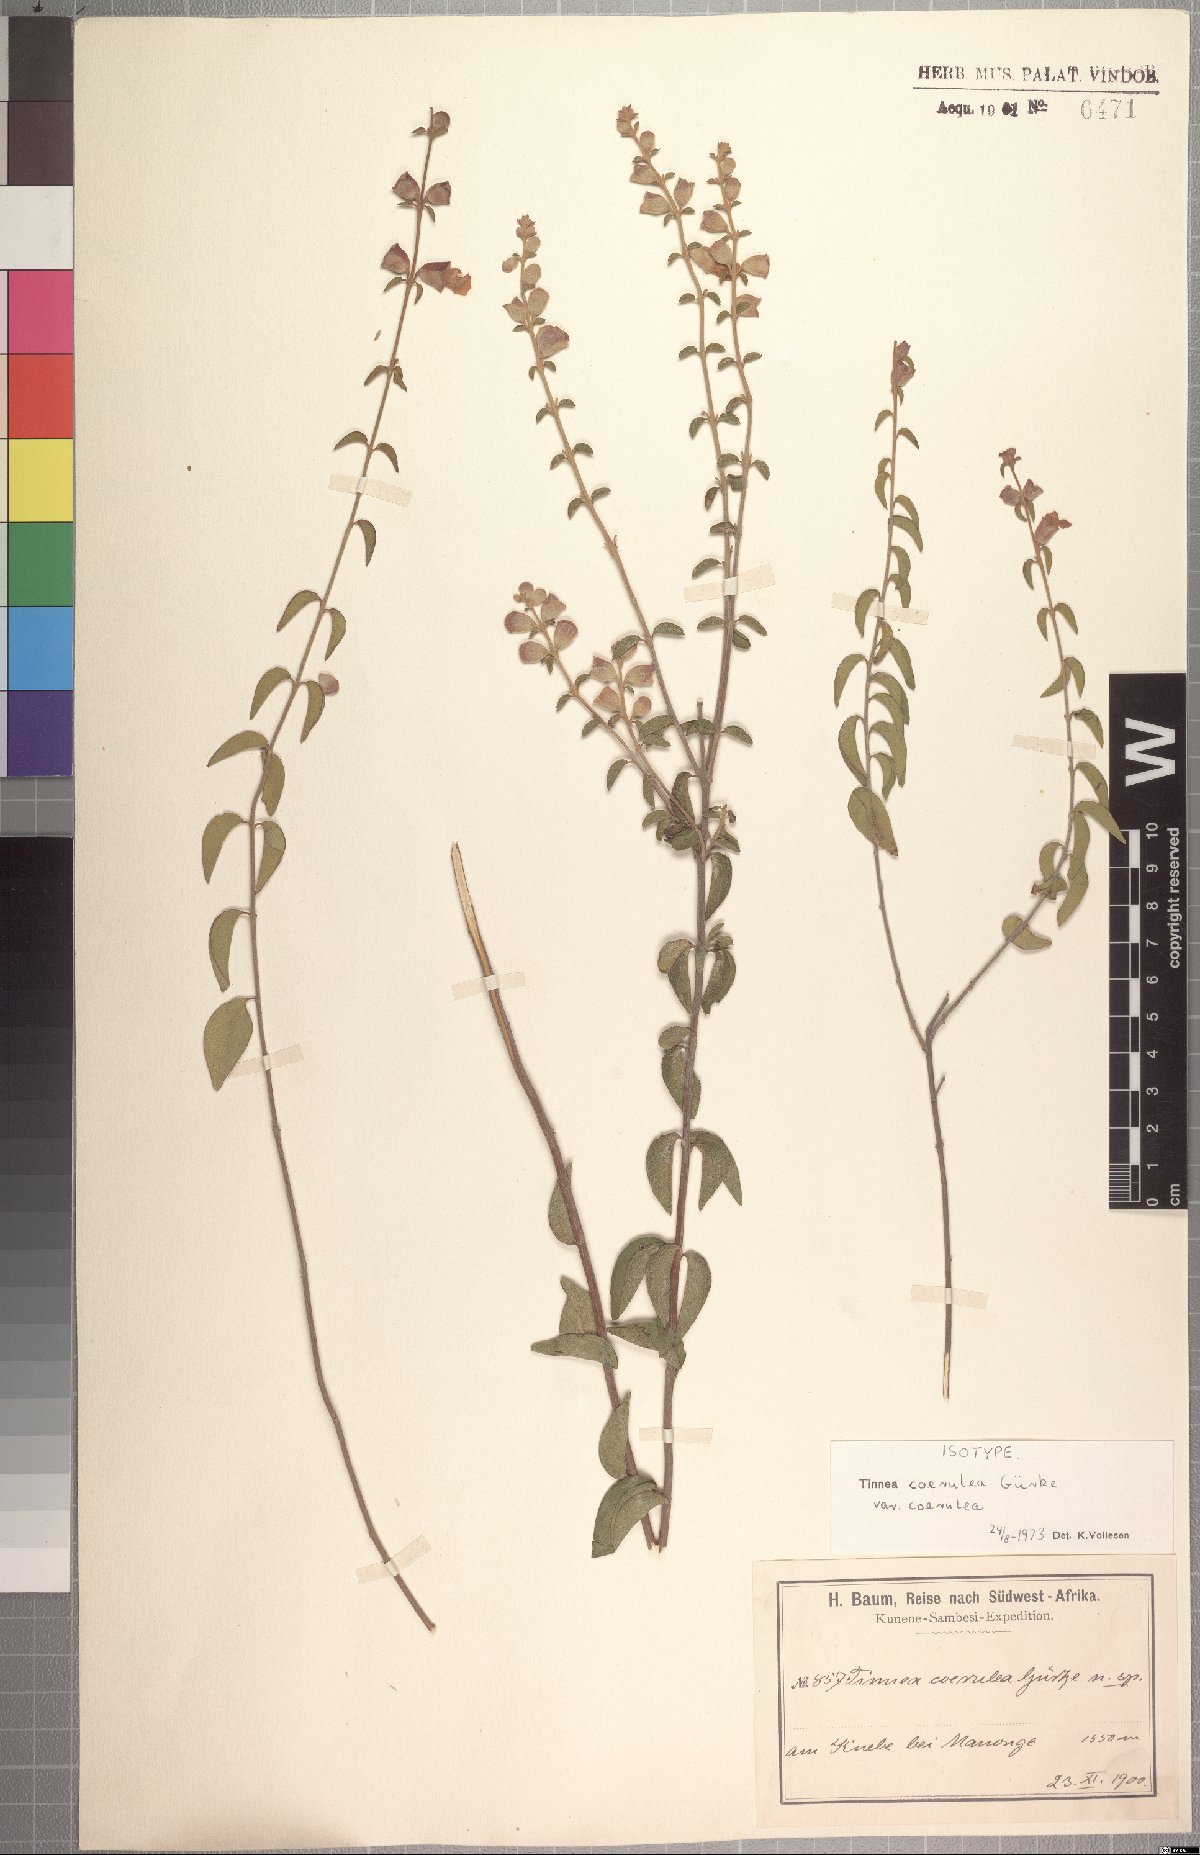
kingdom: Plantae
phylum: Tracheophyta
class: Magnoliopsida
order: Lamiales
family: Lamiaceae
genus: Tinnea
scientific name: Tinnea coerulea
